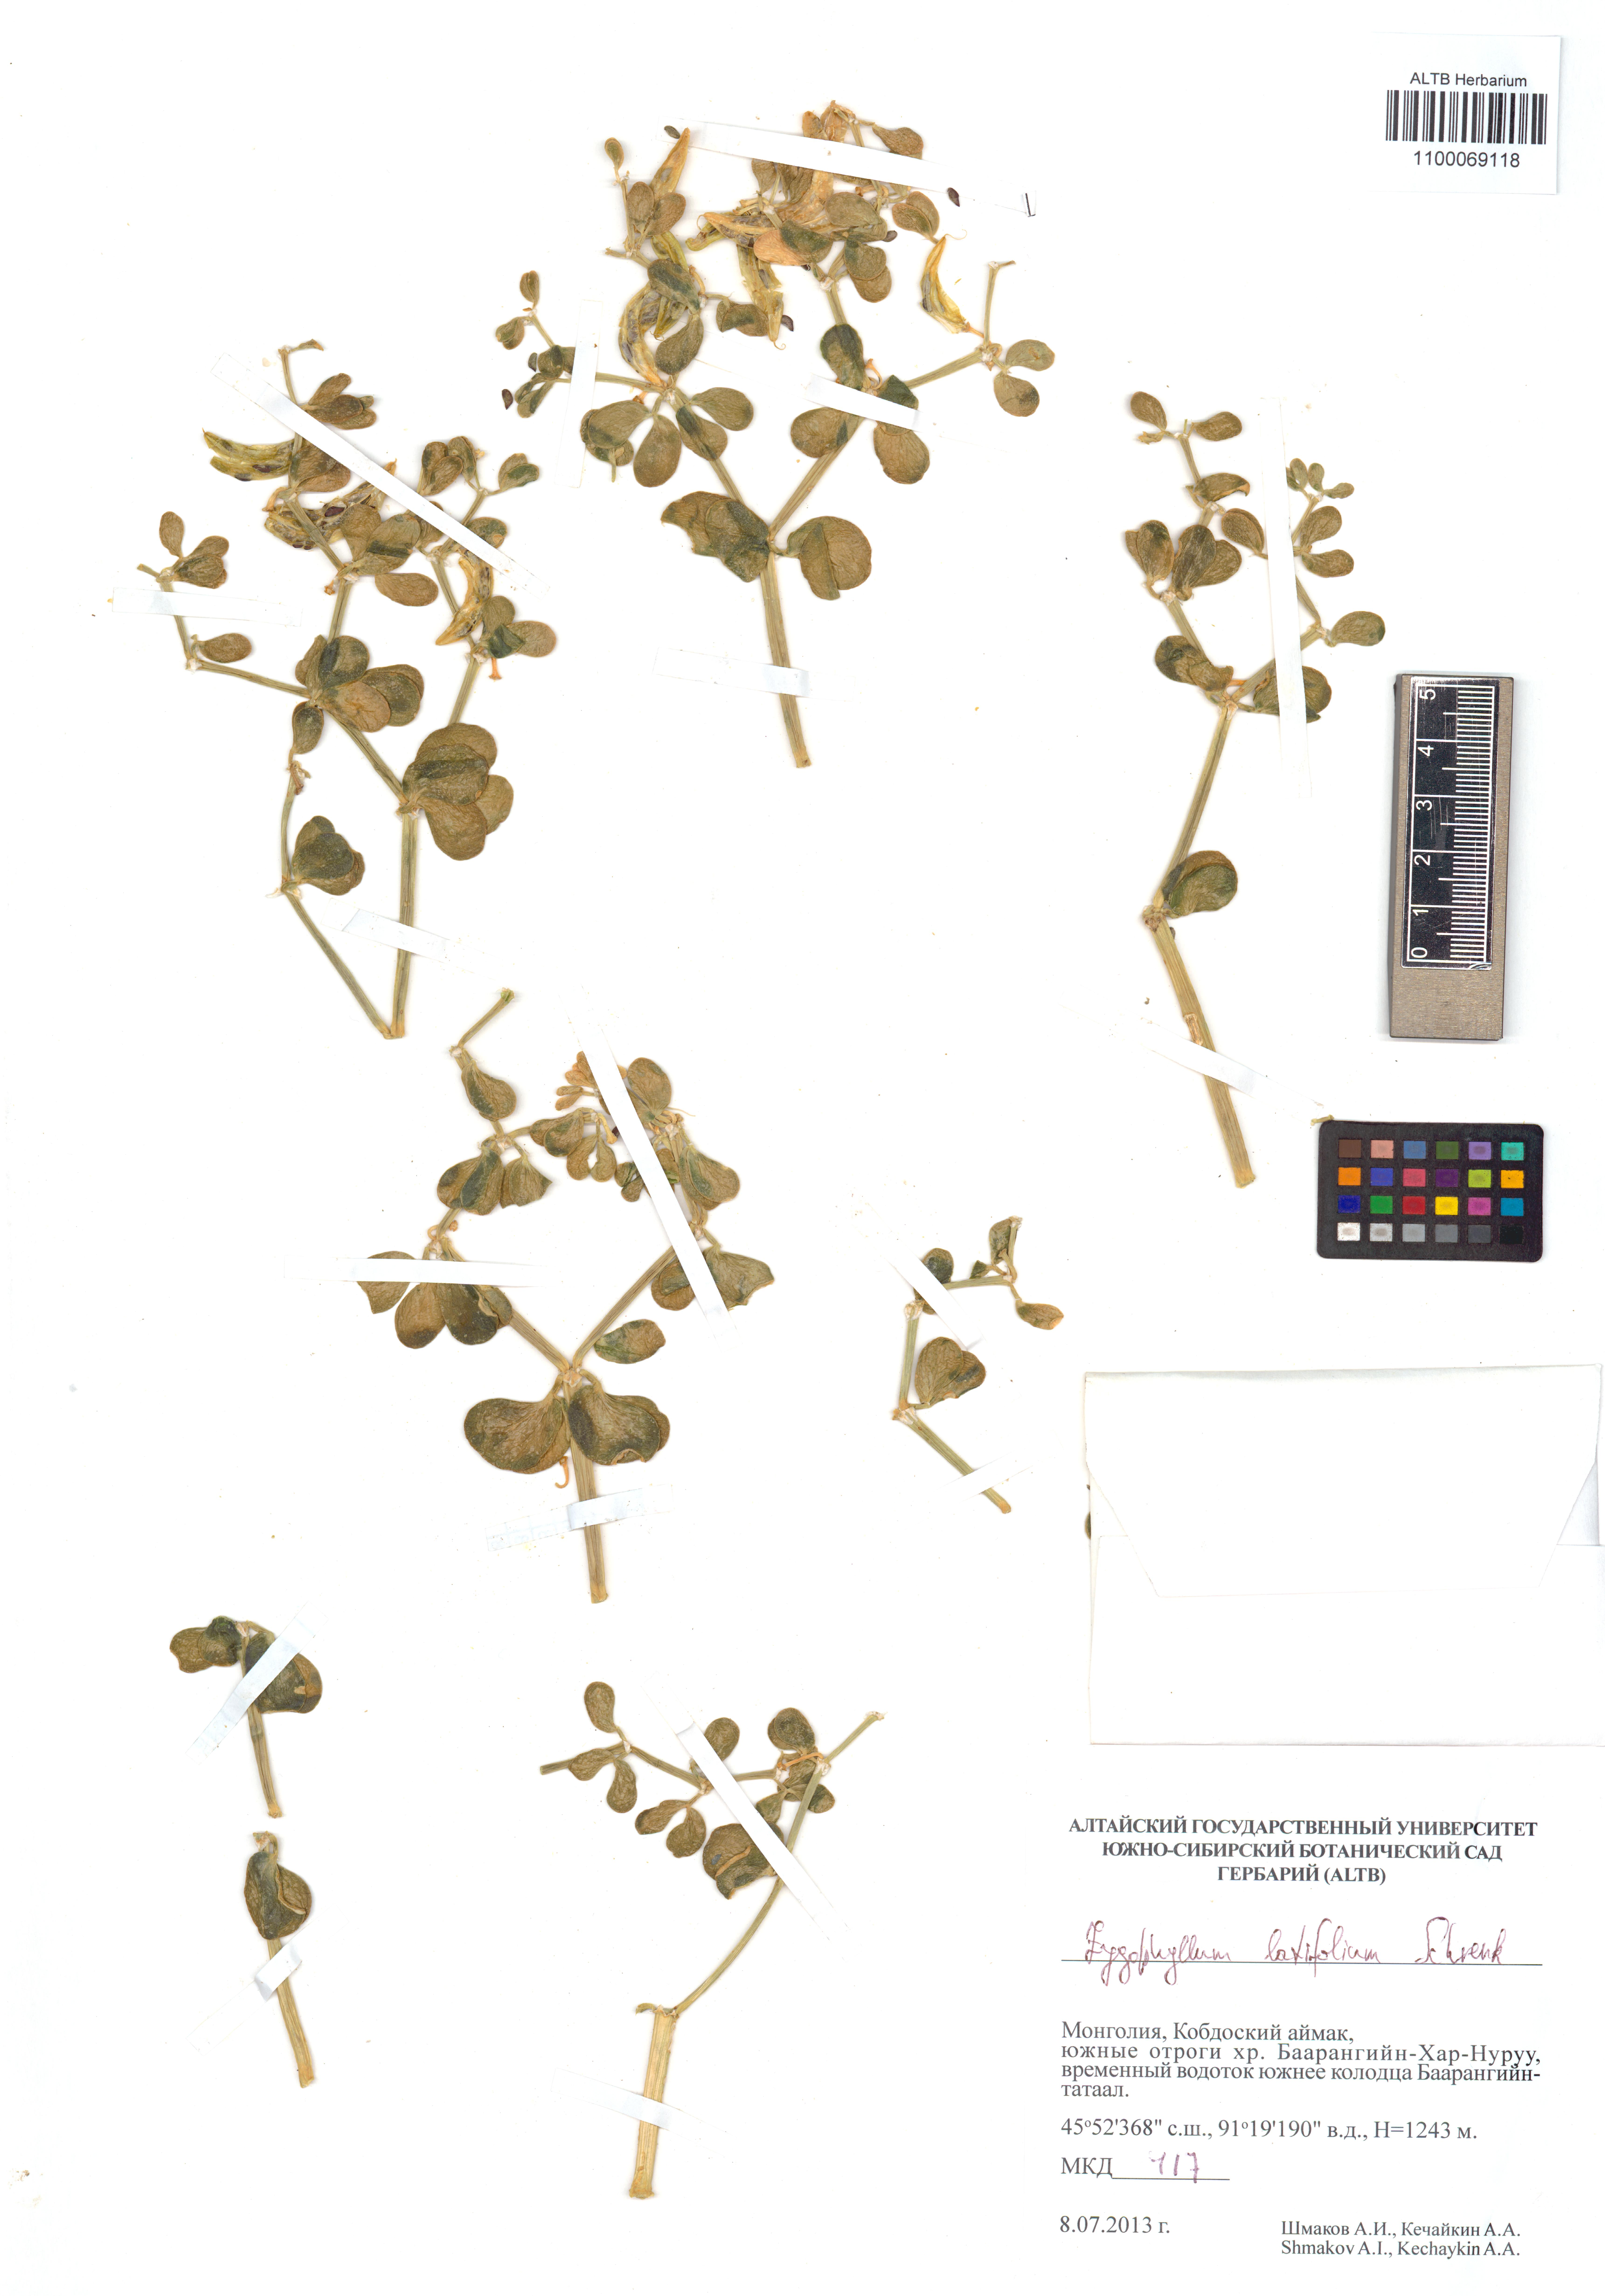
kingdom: Plantae
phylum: Tracheophyta
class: Magnoliopsida
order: Zygophyllales
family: Zygophyllaceae
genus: Zygophyllum
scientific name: Zygophyllum rosowii
